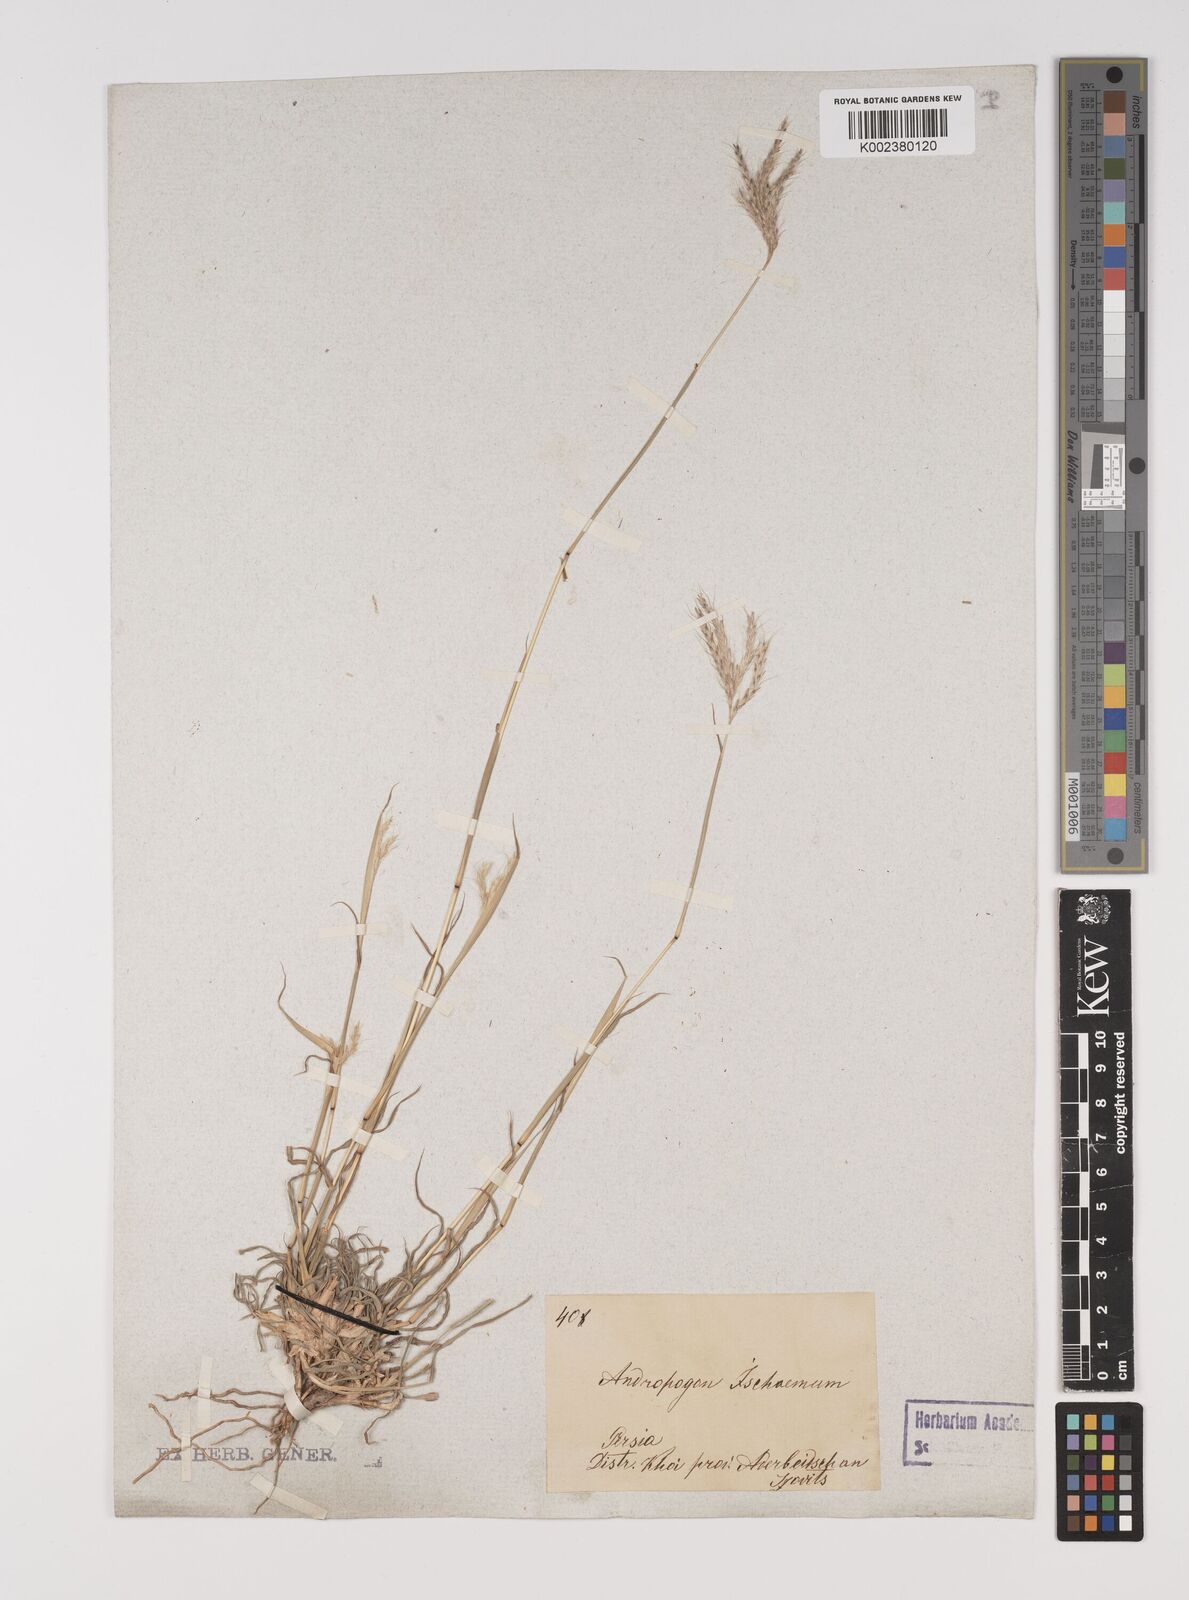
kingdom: Plantae
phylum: Tracheophyta
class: Liliopsida
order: Poales
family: Poaceae
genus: Bothriochloa
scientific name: Bothriochloa ischaemum
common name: Yellow bluestem
